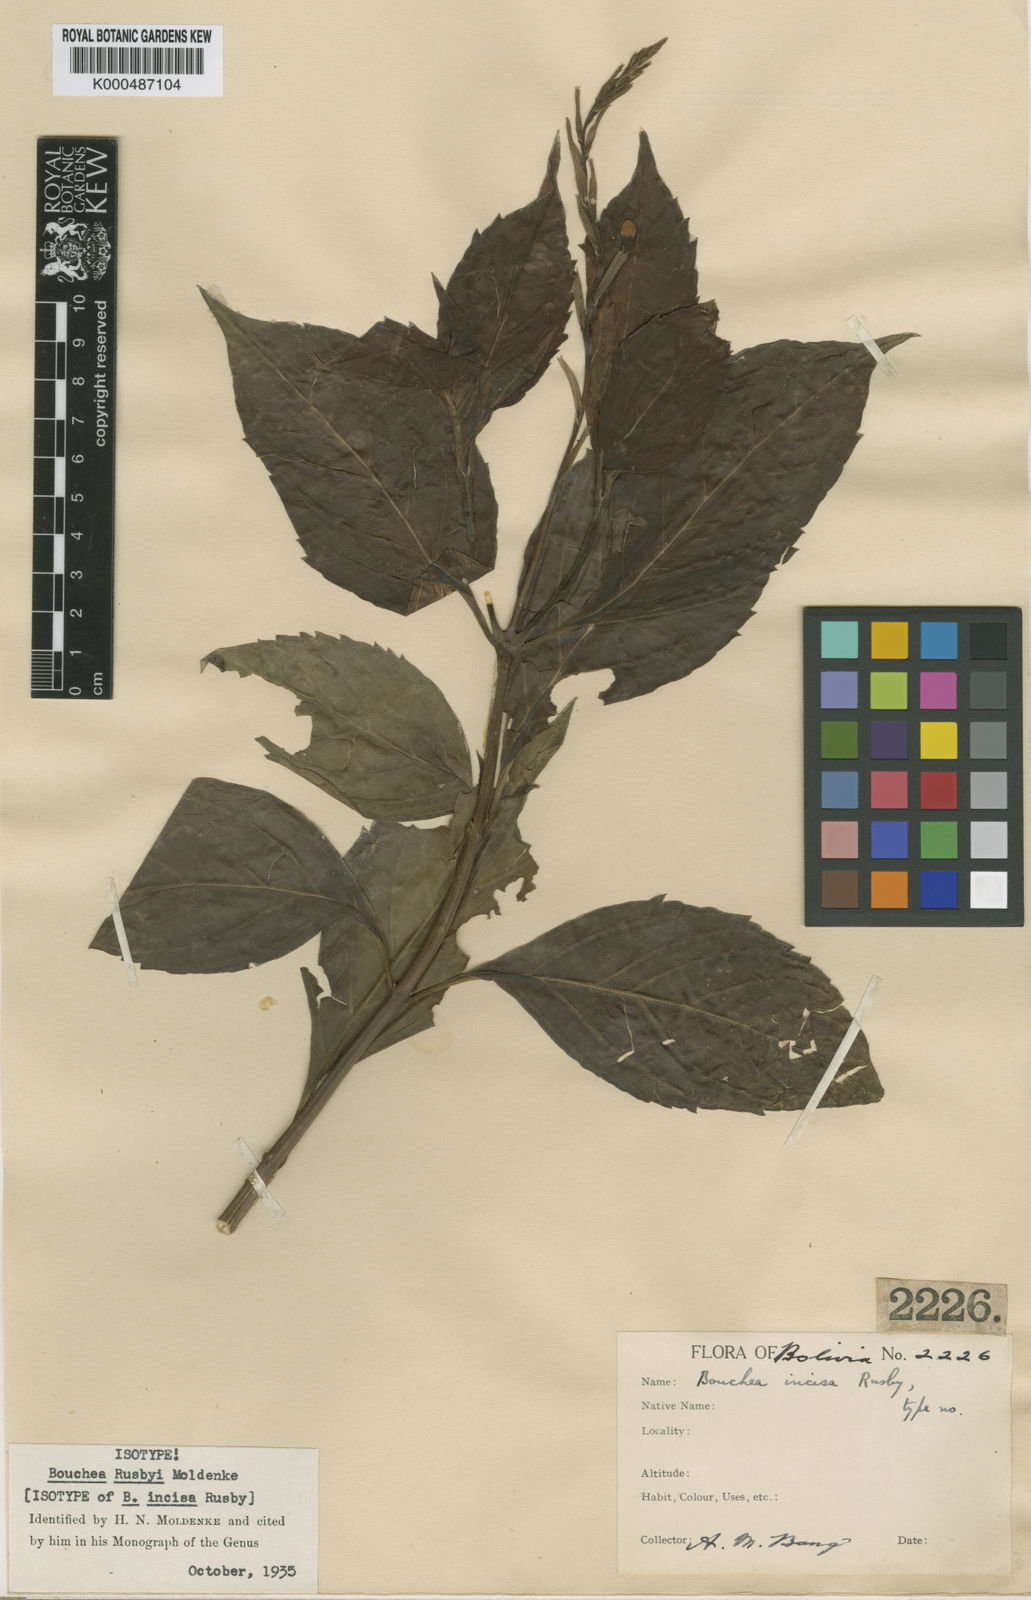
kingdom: Plantae
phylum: Tracheophyta
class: Magnoliopsida
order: Lamiales
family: Verbenaceae
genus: Bouchea
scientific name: Bouchea rusbyi
